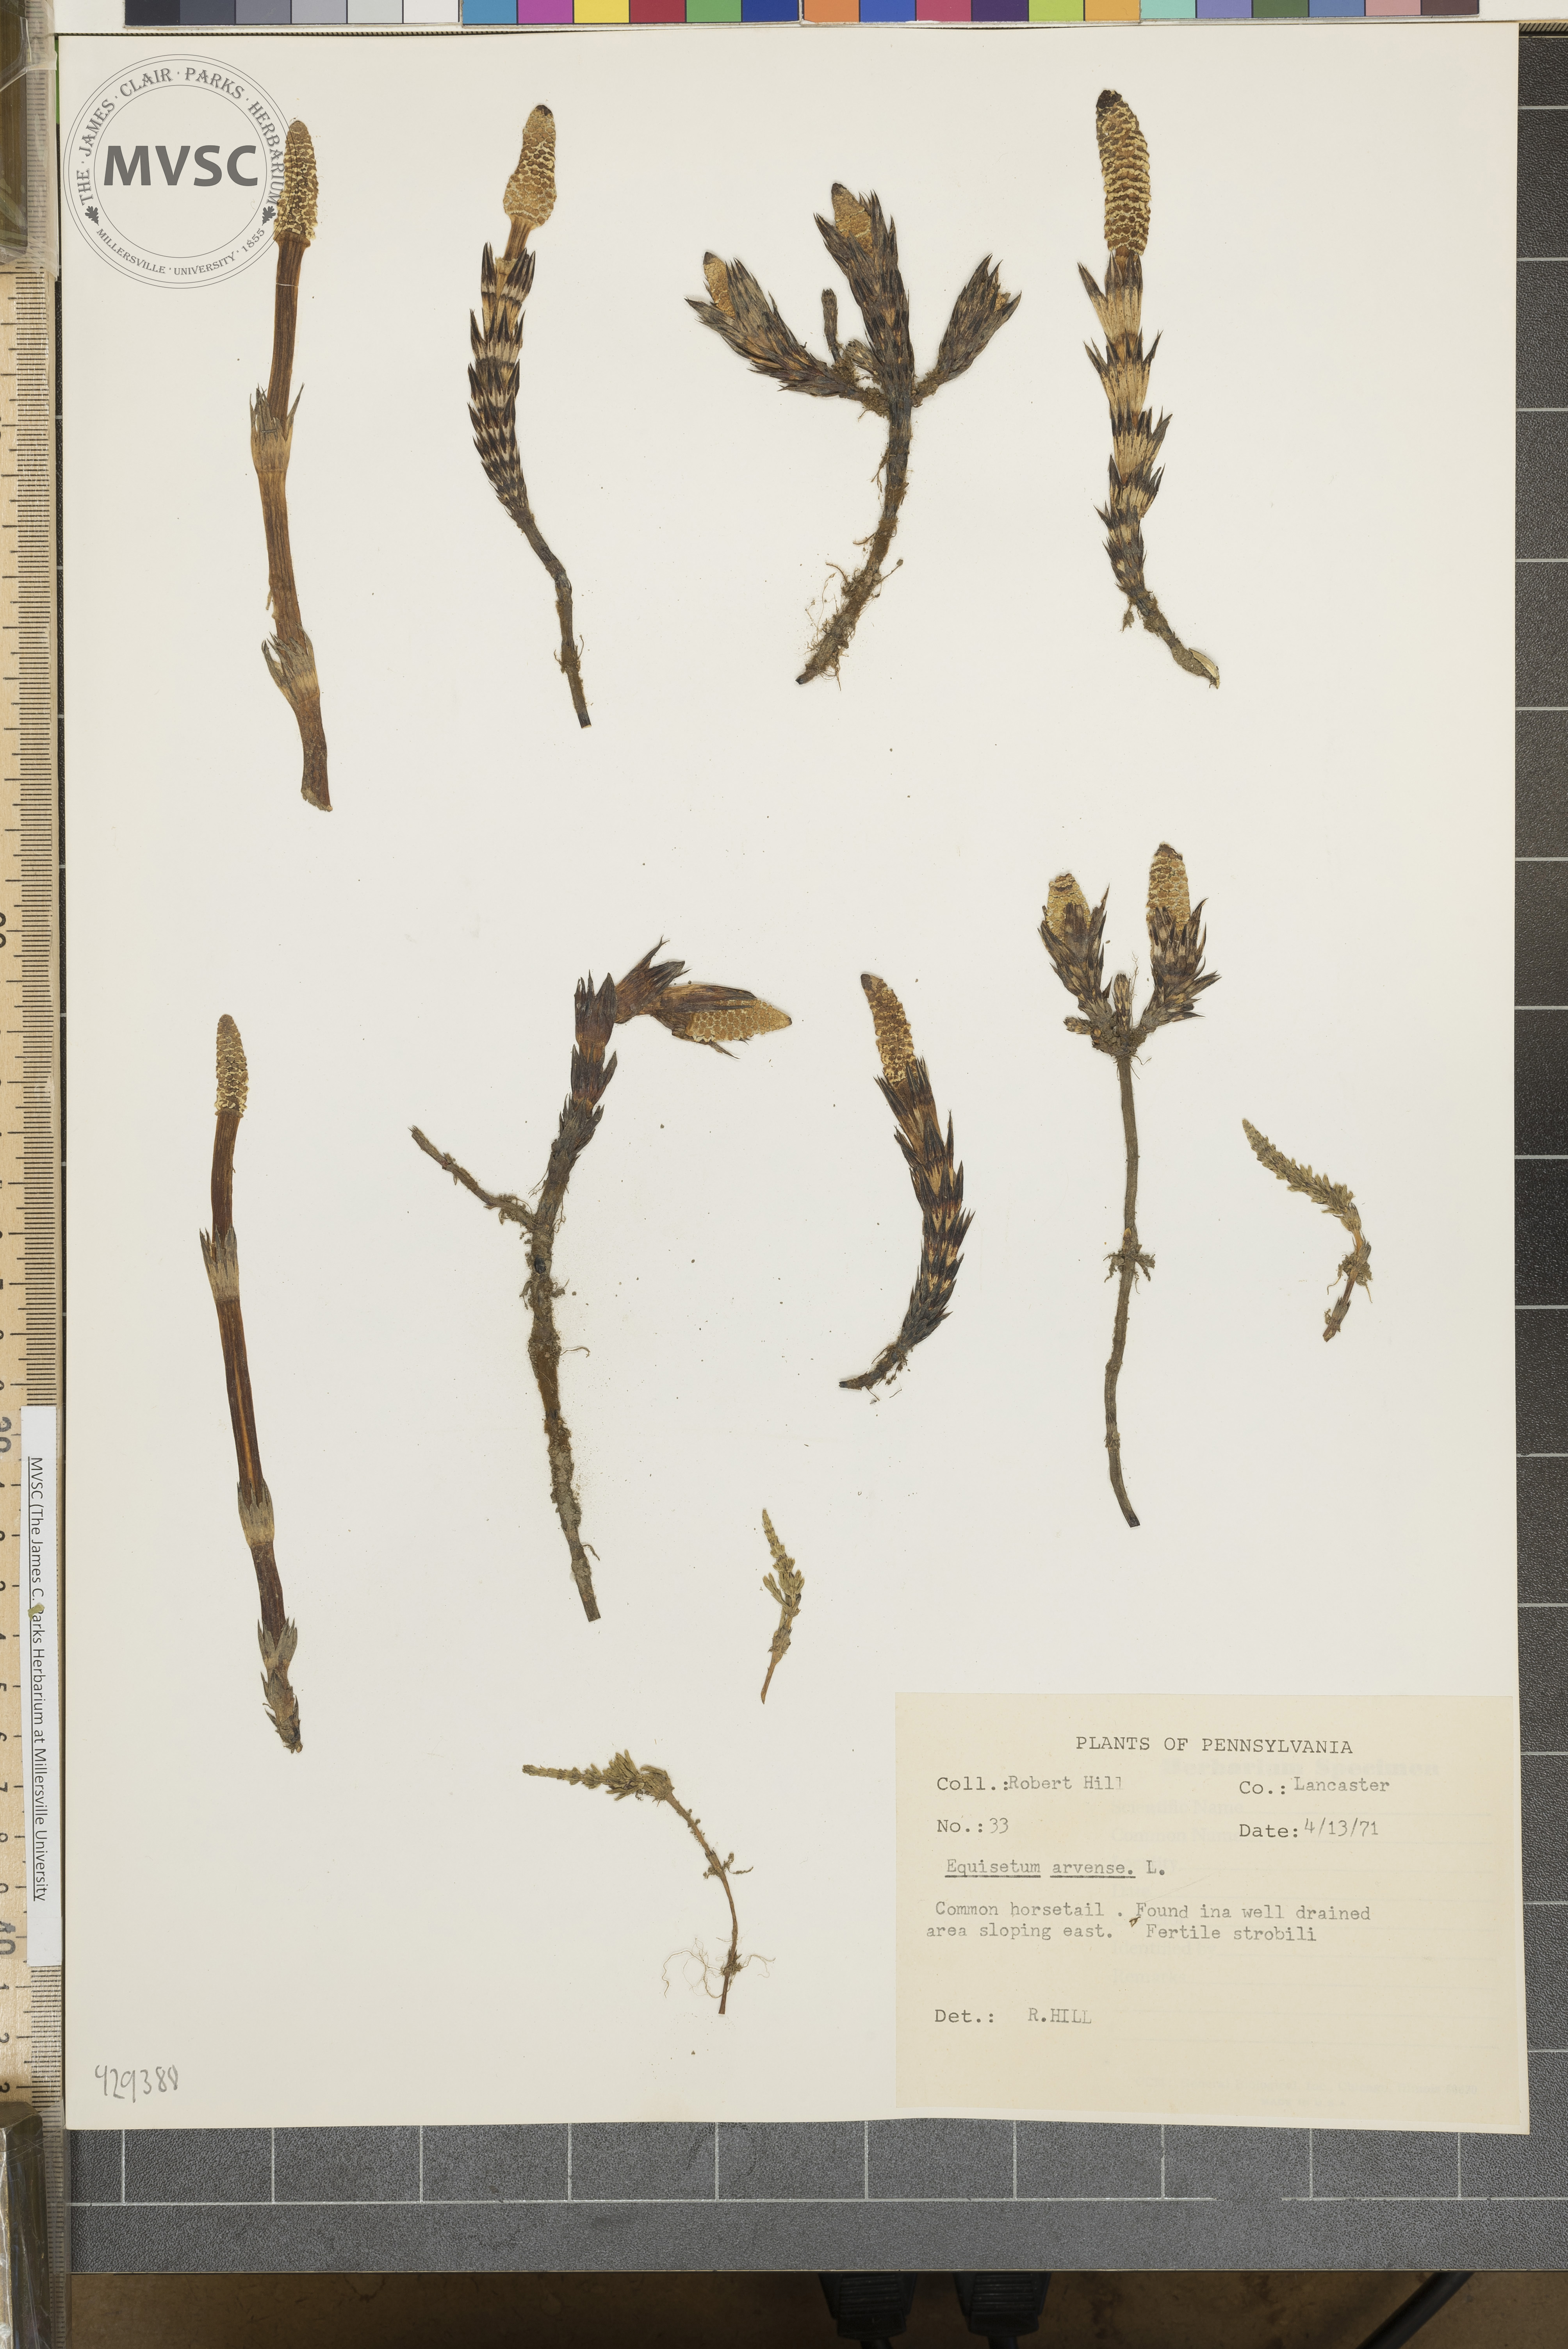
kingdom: Plantae
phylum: Tracheophyta
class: Polypodiopsida
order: Equisetales
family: Equisetaceae
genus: Equisetum
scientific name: Equisetum arvense
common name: Field horsetail
